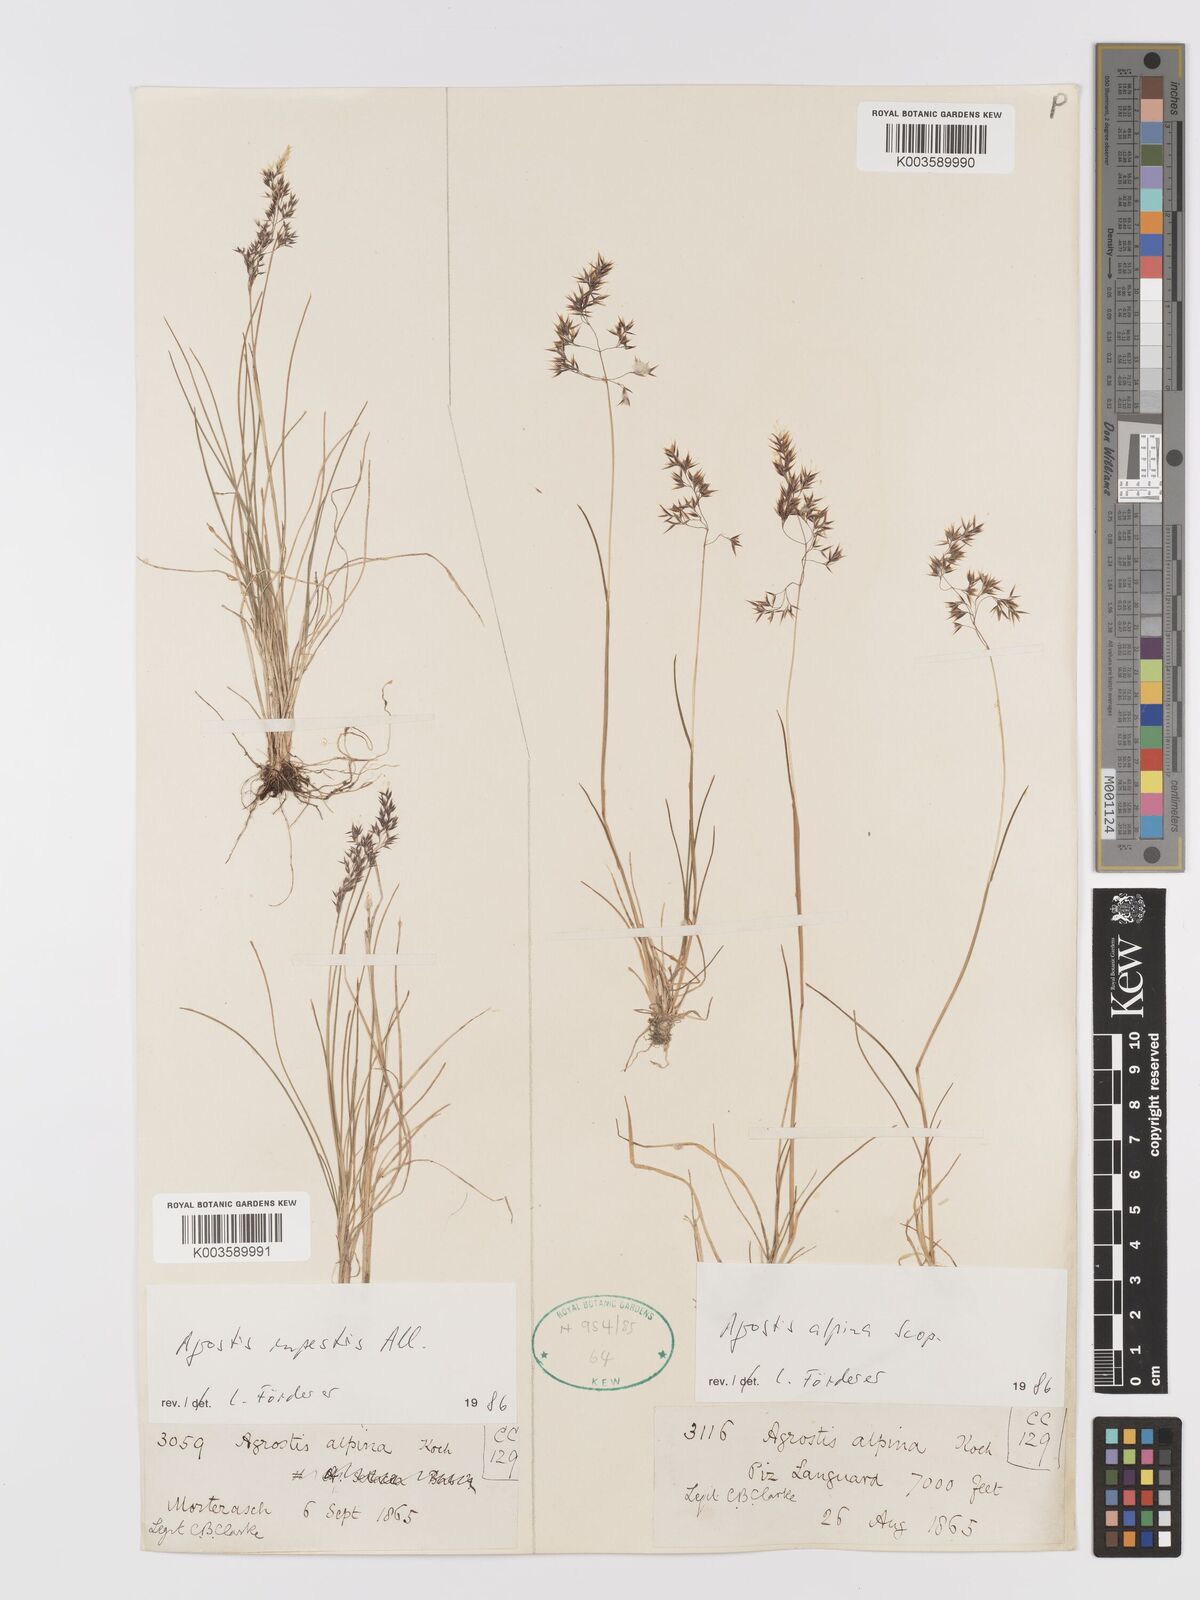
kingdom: Plantae
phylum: Tracheophyta
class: Liliopsida
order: Poales
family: Poaceae
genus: Alpagrostis
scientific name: Alpagrostis alpina
